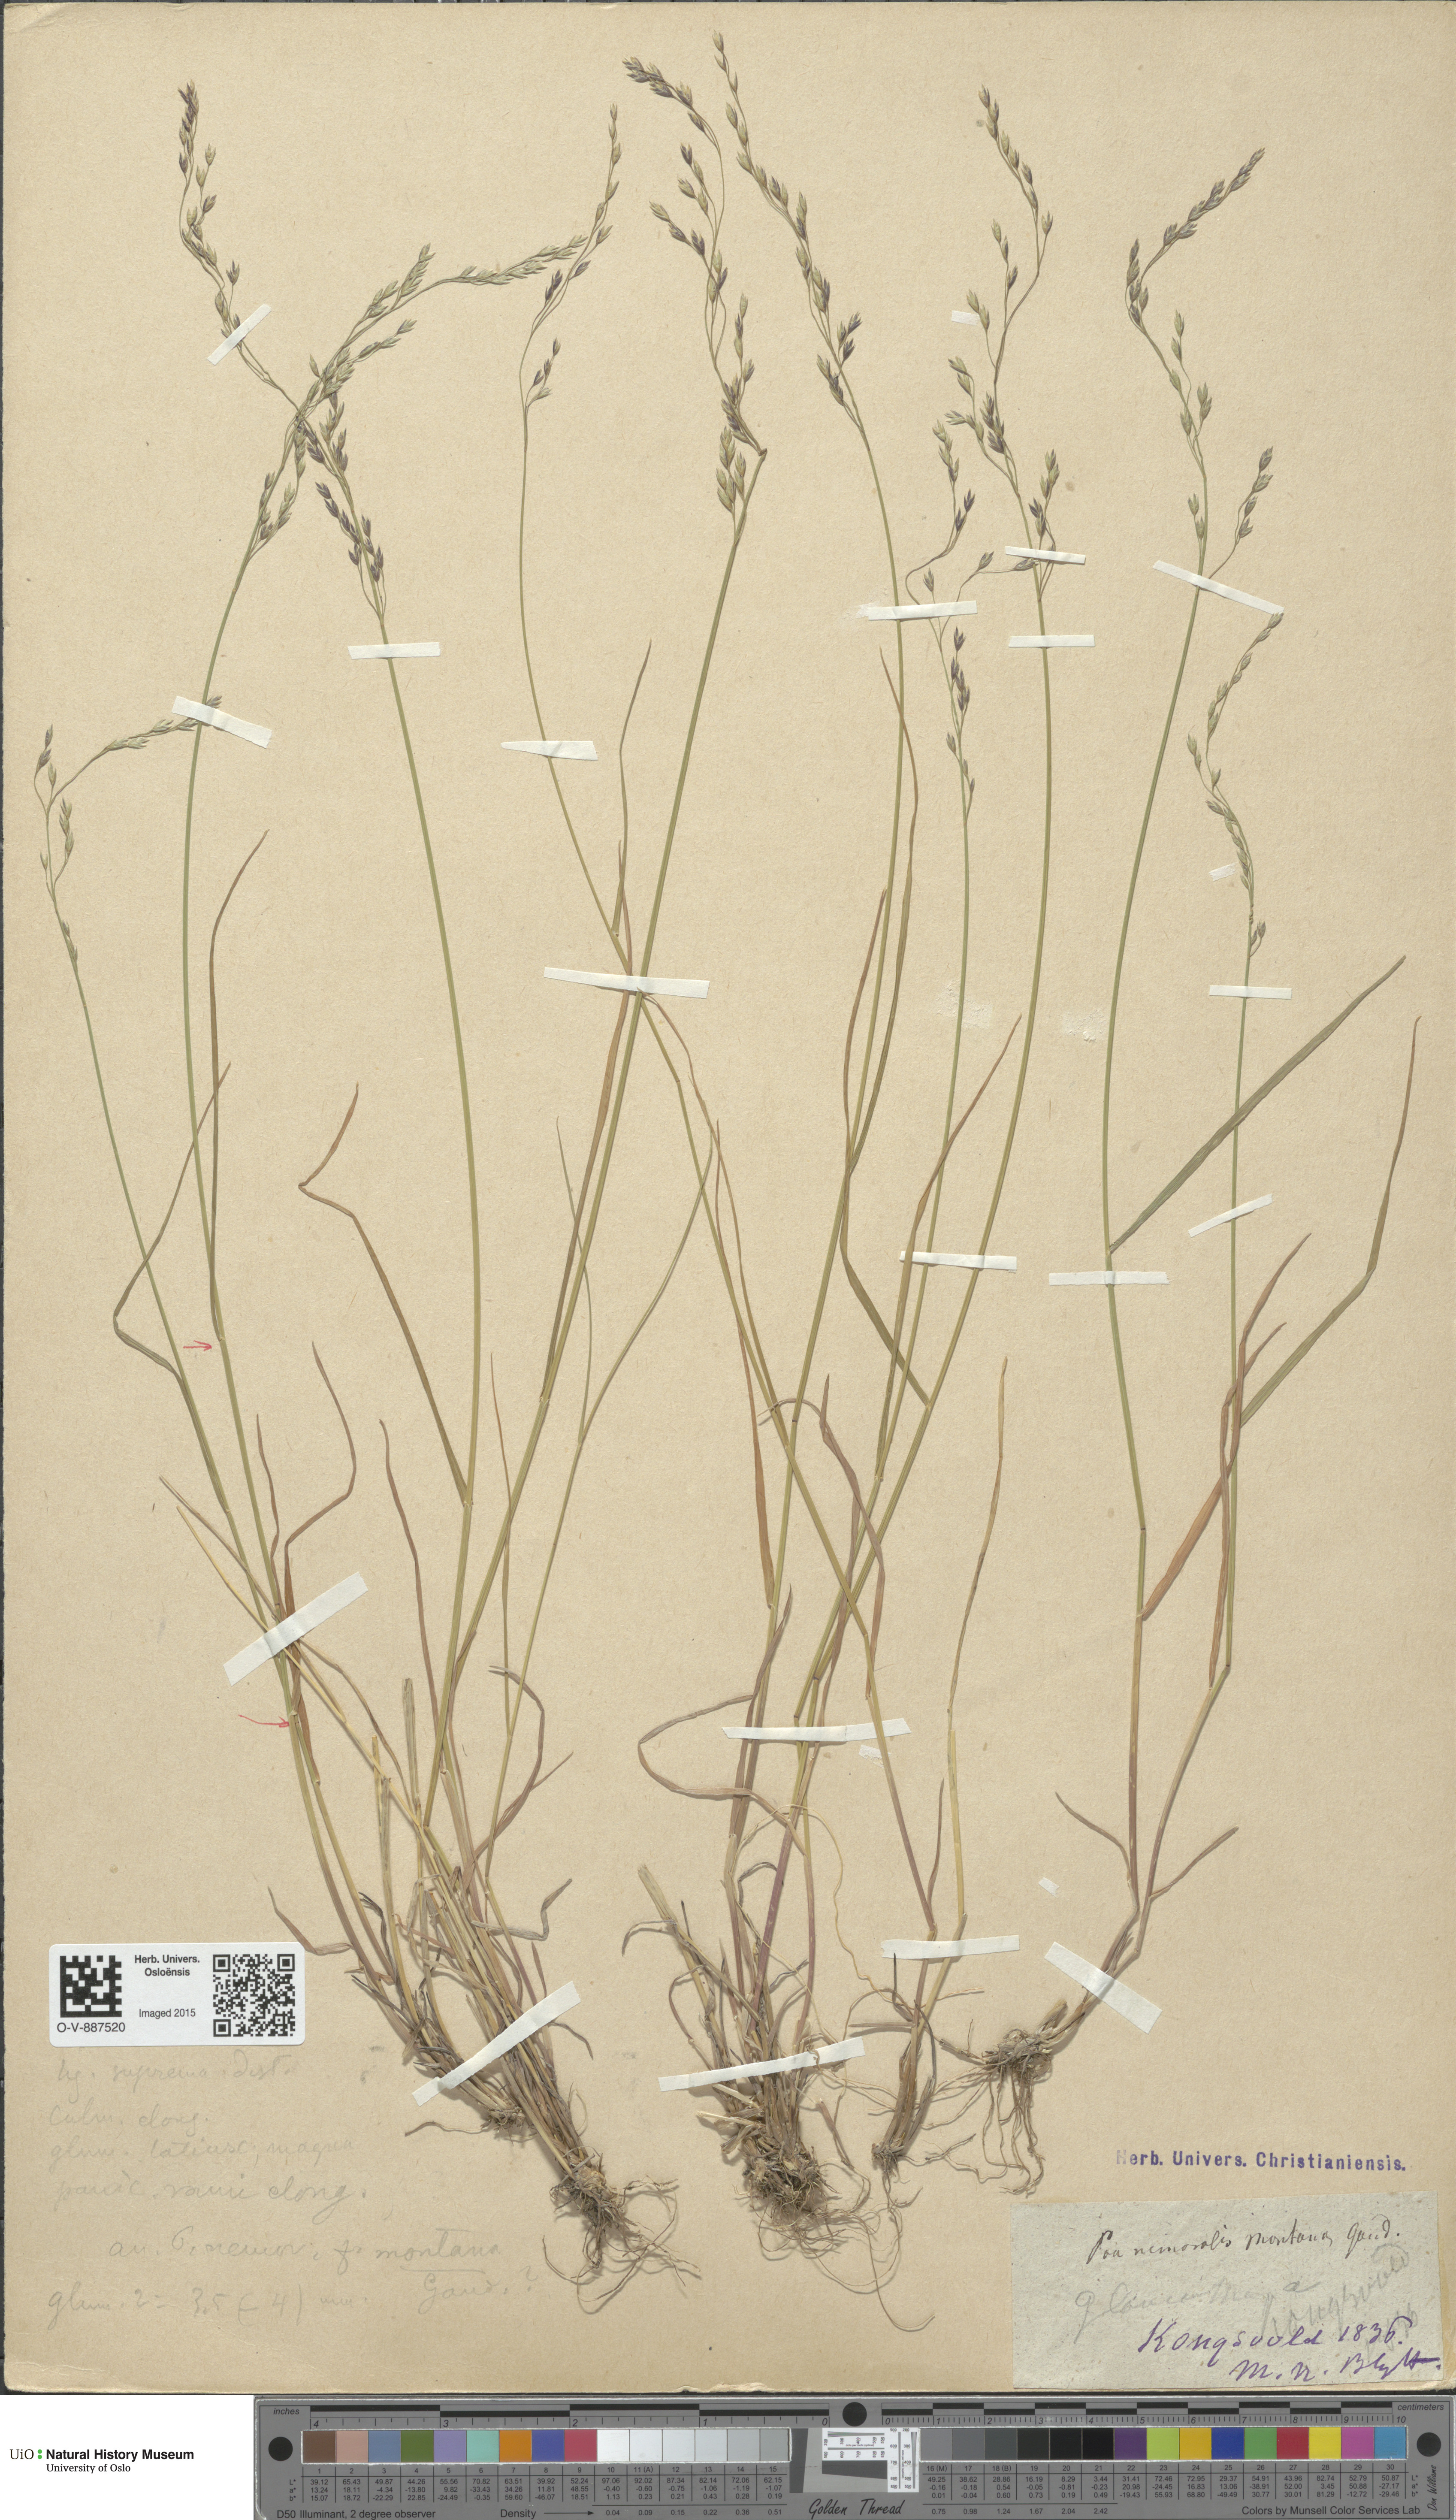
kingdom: Plantae
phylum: Tracheophyta
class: Liliopsida
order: Poales
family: Poaceae
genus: Poa
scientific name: Poa nemoralis
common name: Wood bluegrass
